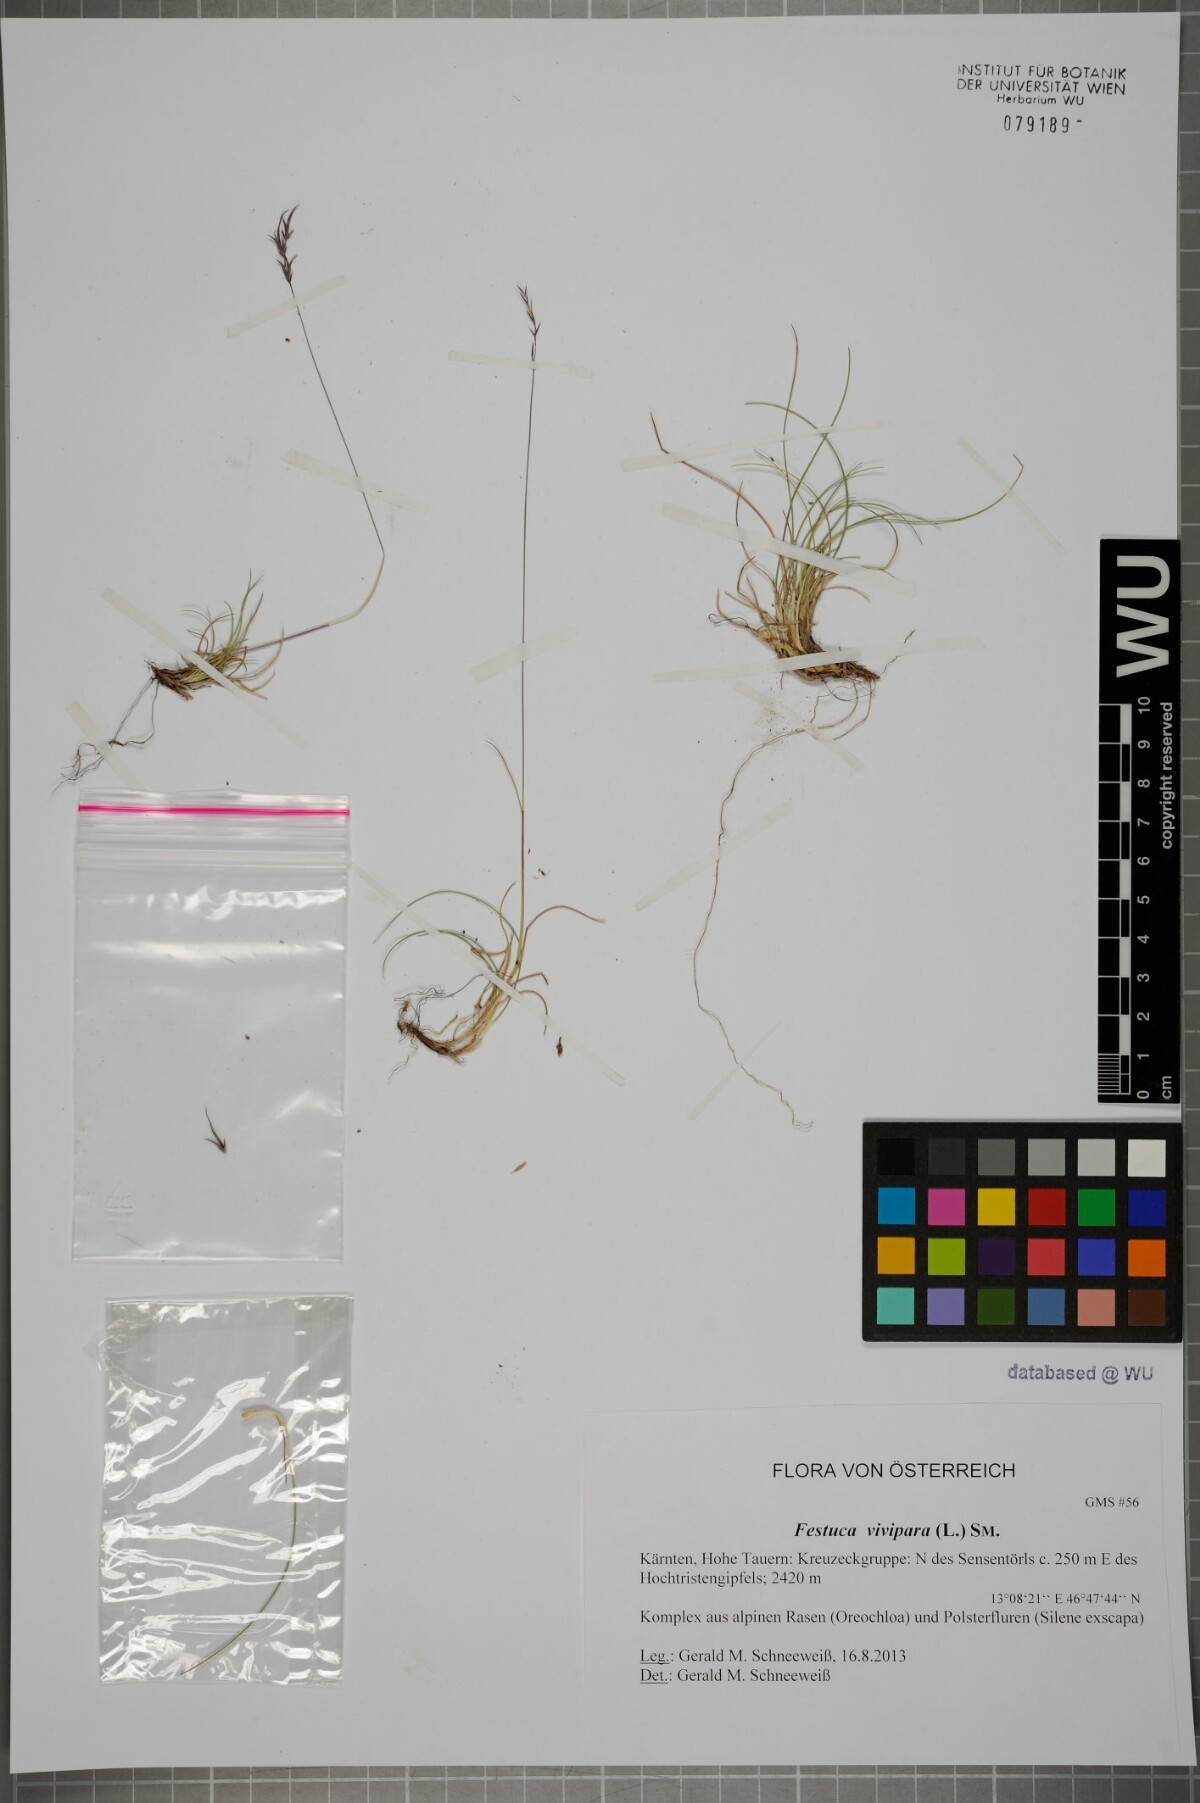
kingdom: Plantae
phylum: Tracheophyta
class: Liliopsida
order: Poales
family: Poaceae
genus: Festuca
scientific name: Festuca vivipara
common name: Viviparous sheep's-fescue
